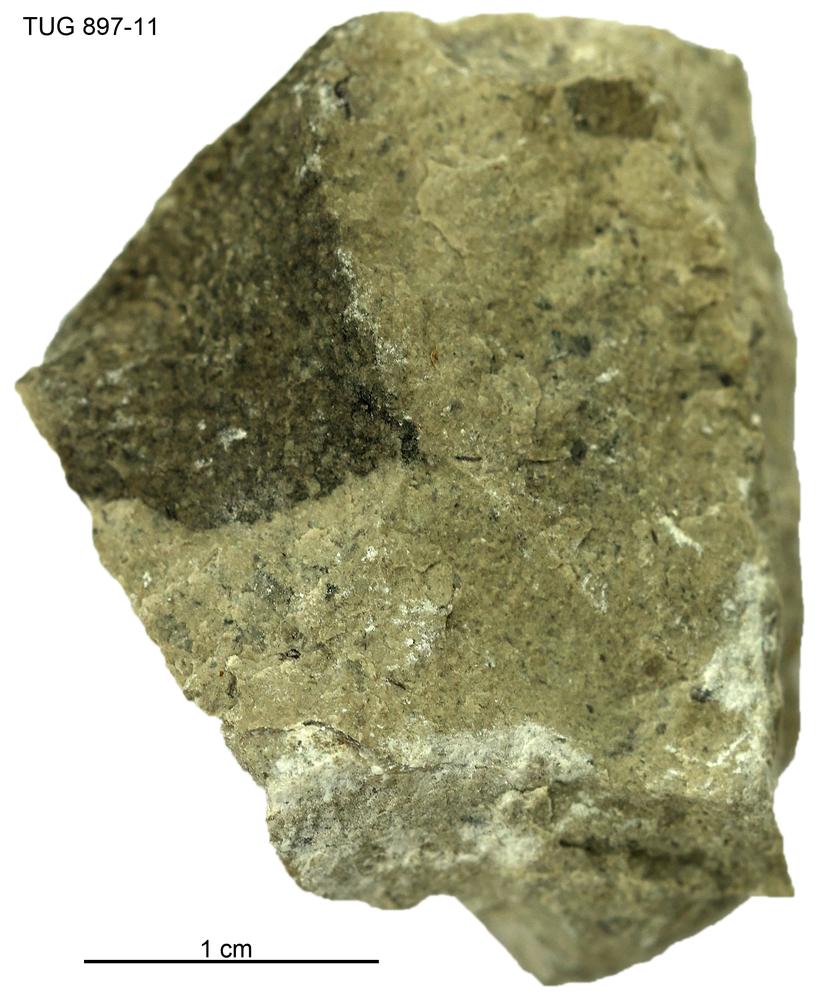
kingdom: Animalia
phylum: Porifera
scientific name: Porifera
